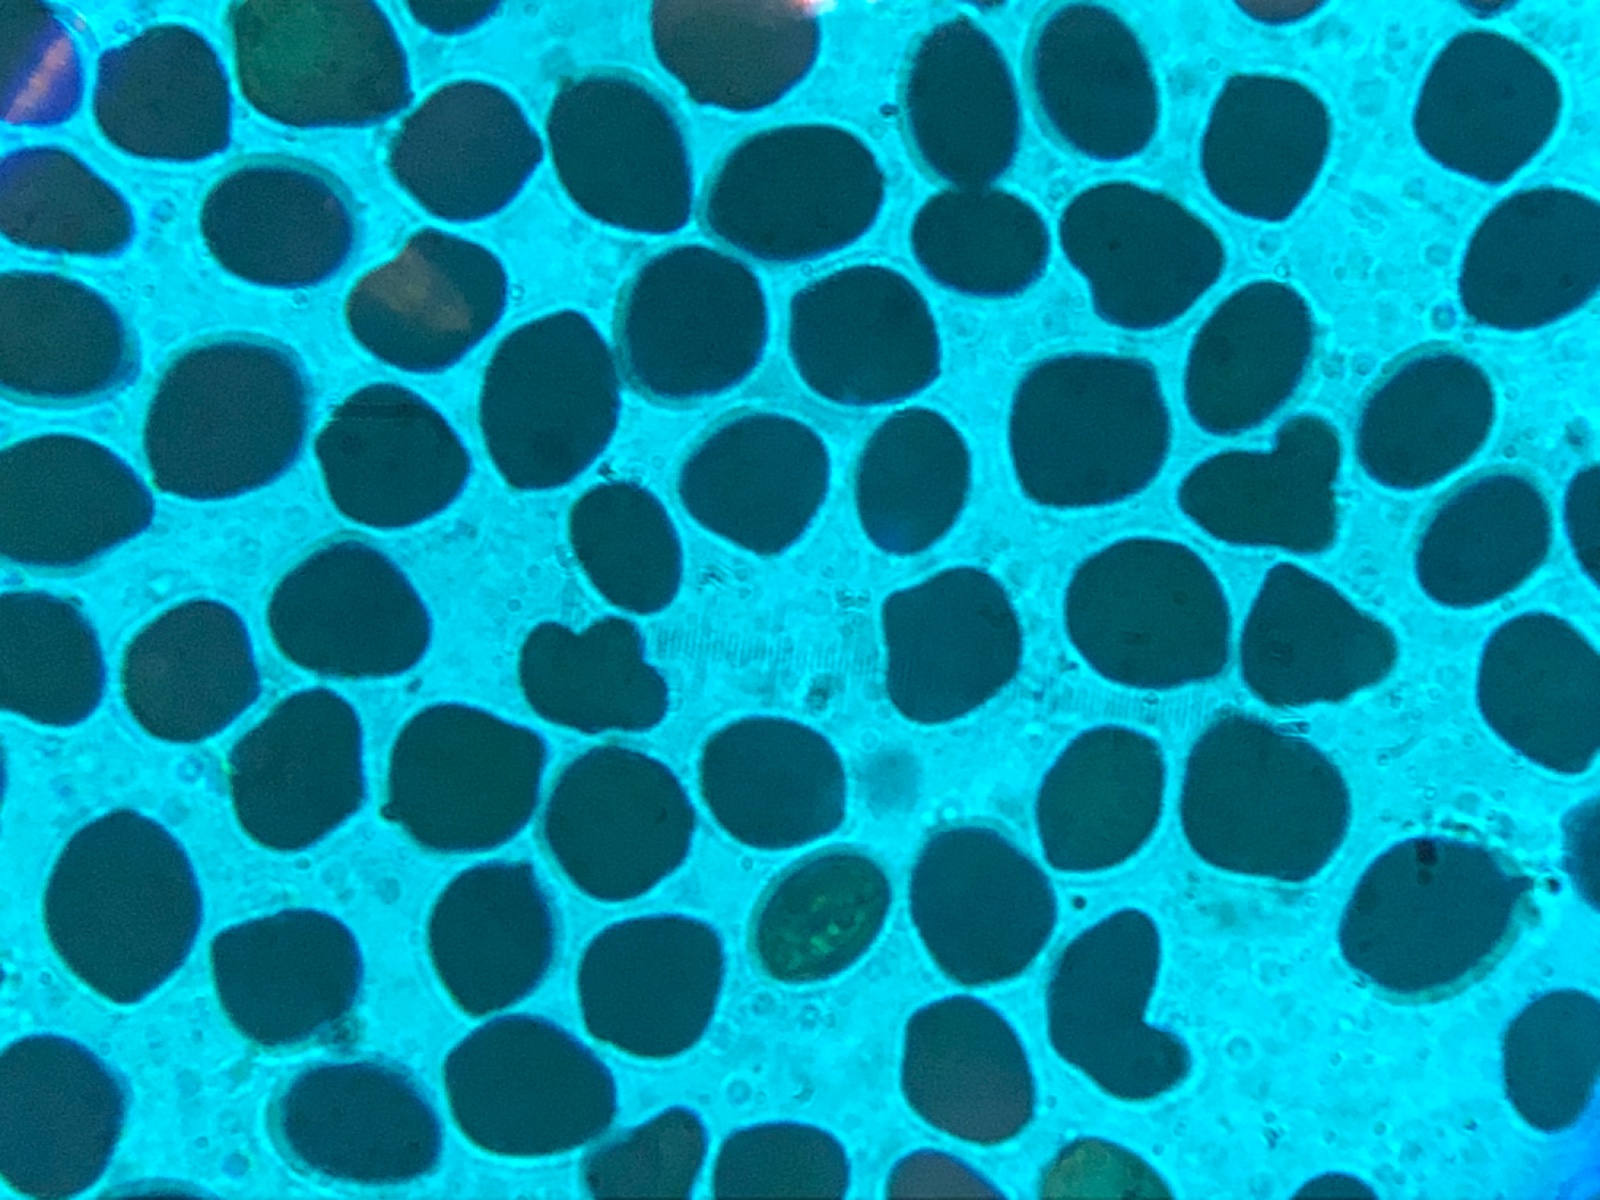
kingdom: Fungi
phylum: Basidiomycota
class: Agaricomycetes
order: Agaricales
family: Psathyrellaceae
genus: Coprinopsis
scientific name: Coprinopsis pseudonivea
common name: pudret blækhat
